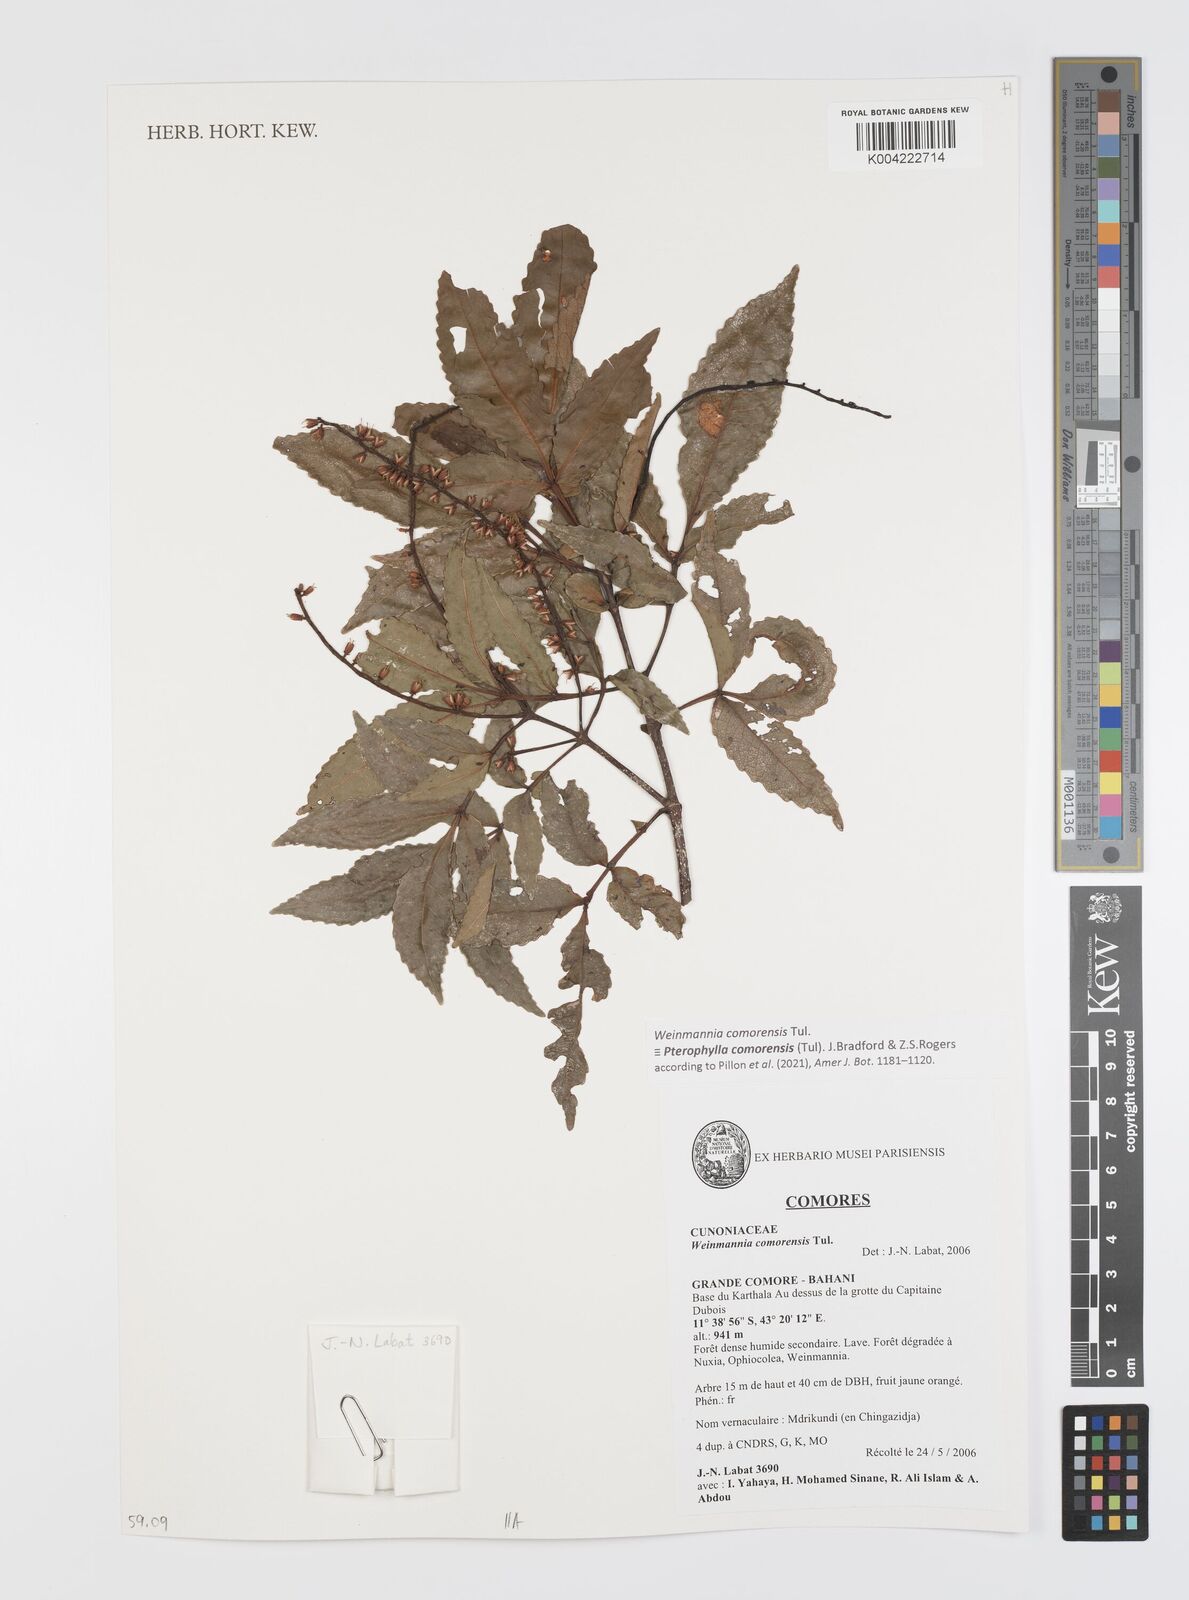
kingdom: Plantae
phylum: Tracheophyta
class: Magnoliopsida
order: Oxalidales
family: Cunoniaceae
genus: Pterophylla
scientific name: Pterophylla
